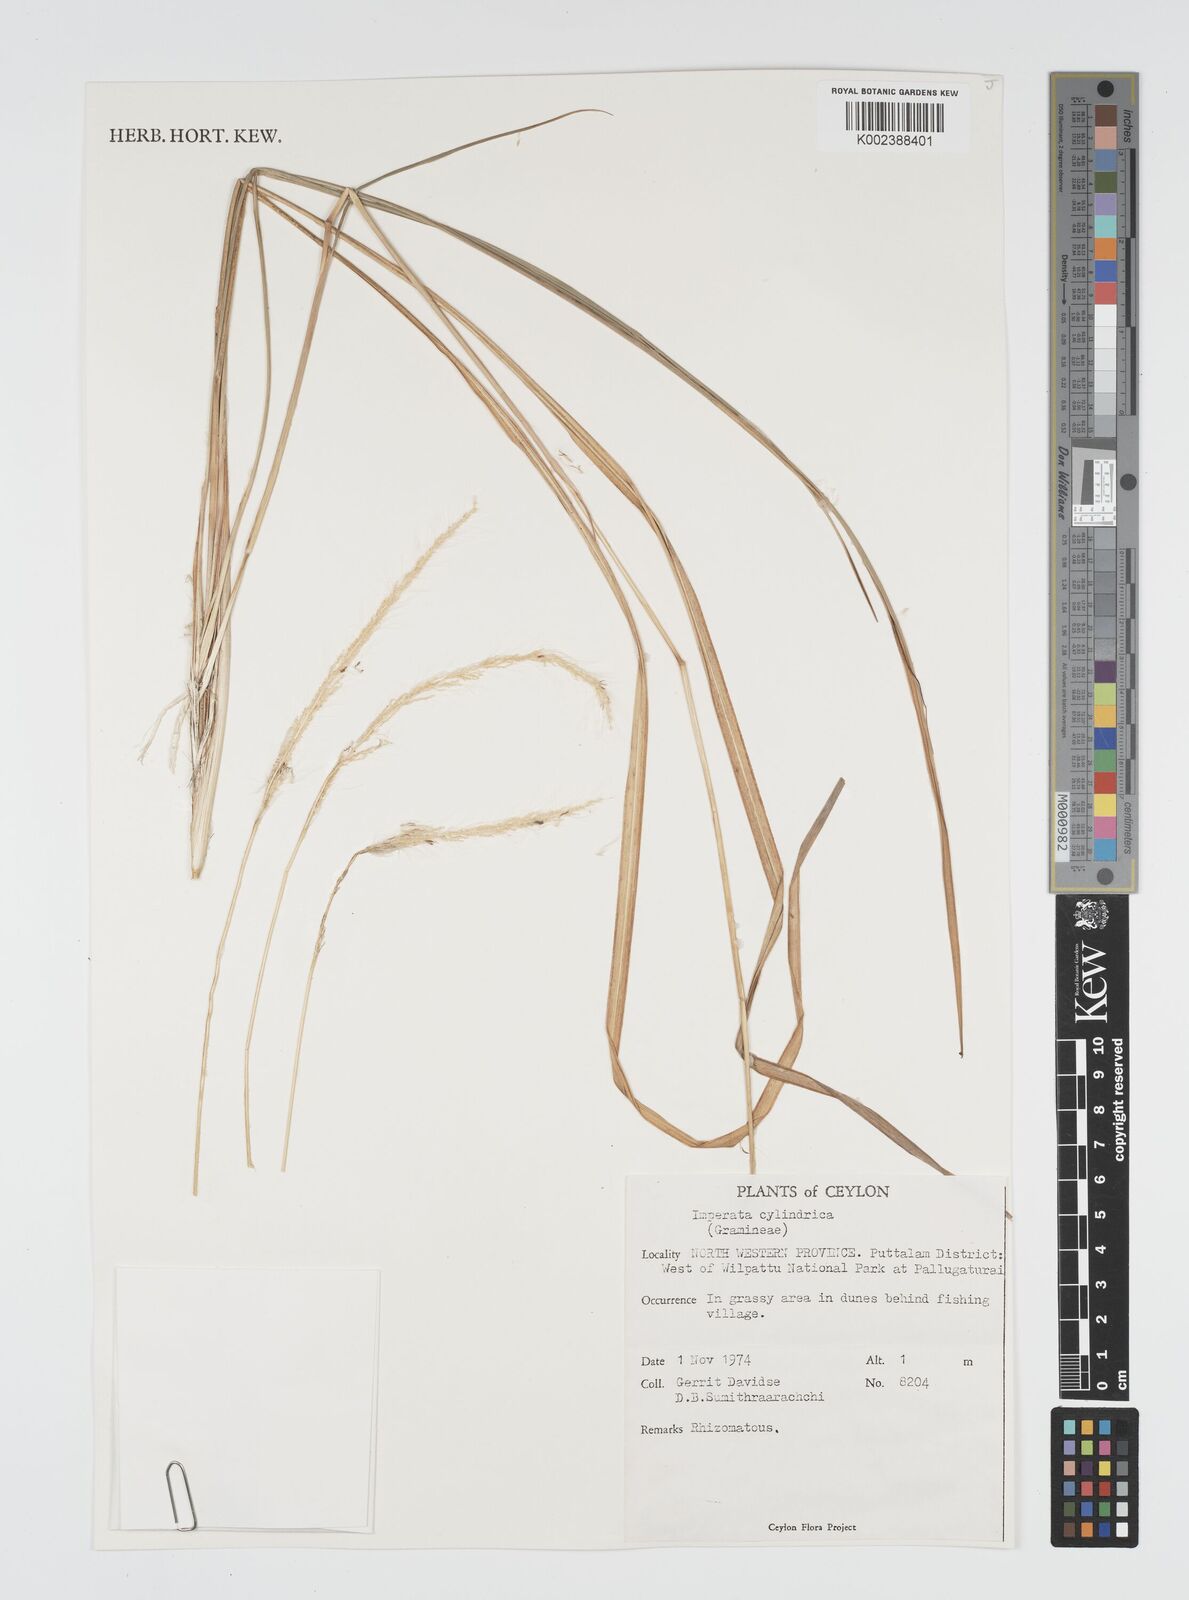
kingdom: Plantae
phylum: Tracheophyta
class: Liliopsida
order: Poales
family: Poaceae
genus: Imperata
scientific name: Imperata cylindrica
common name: Cogongrass
